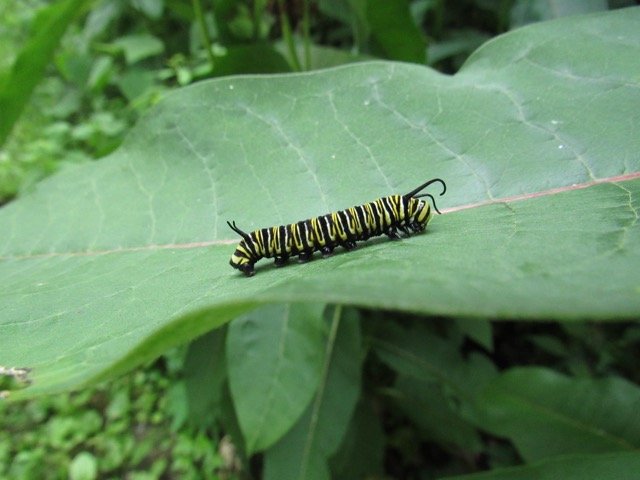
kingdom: Animalia
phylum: Arthropoda
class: Insecta
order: Lepidoptera
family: Nymphalidae
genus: Danaus
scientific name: Danaus plexippus
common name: Monarch
